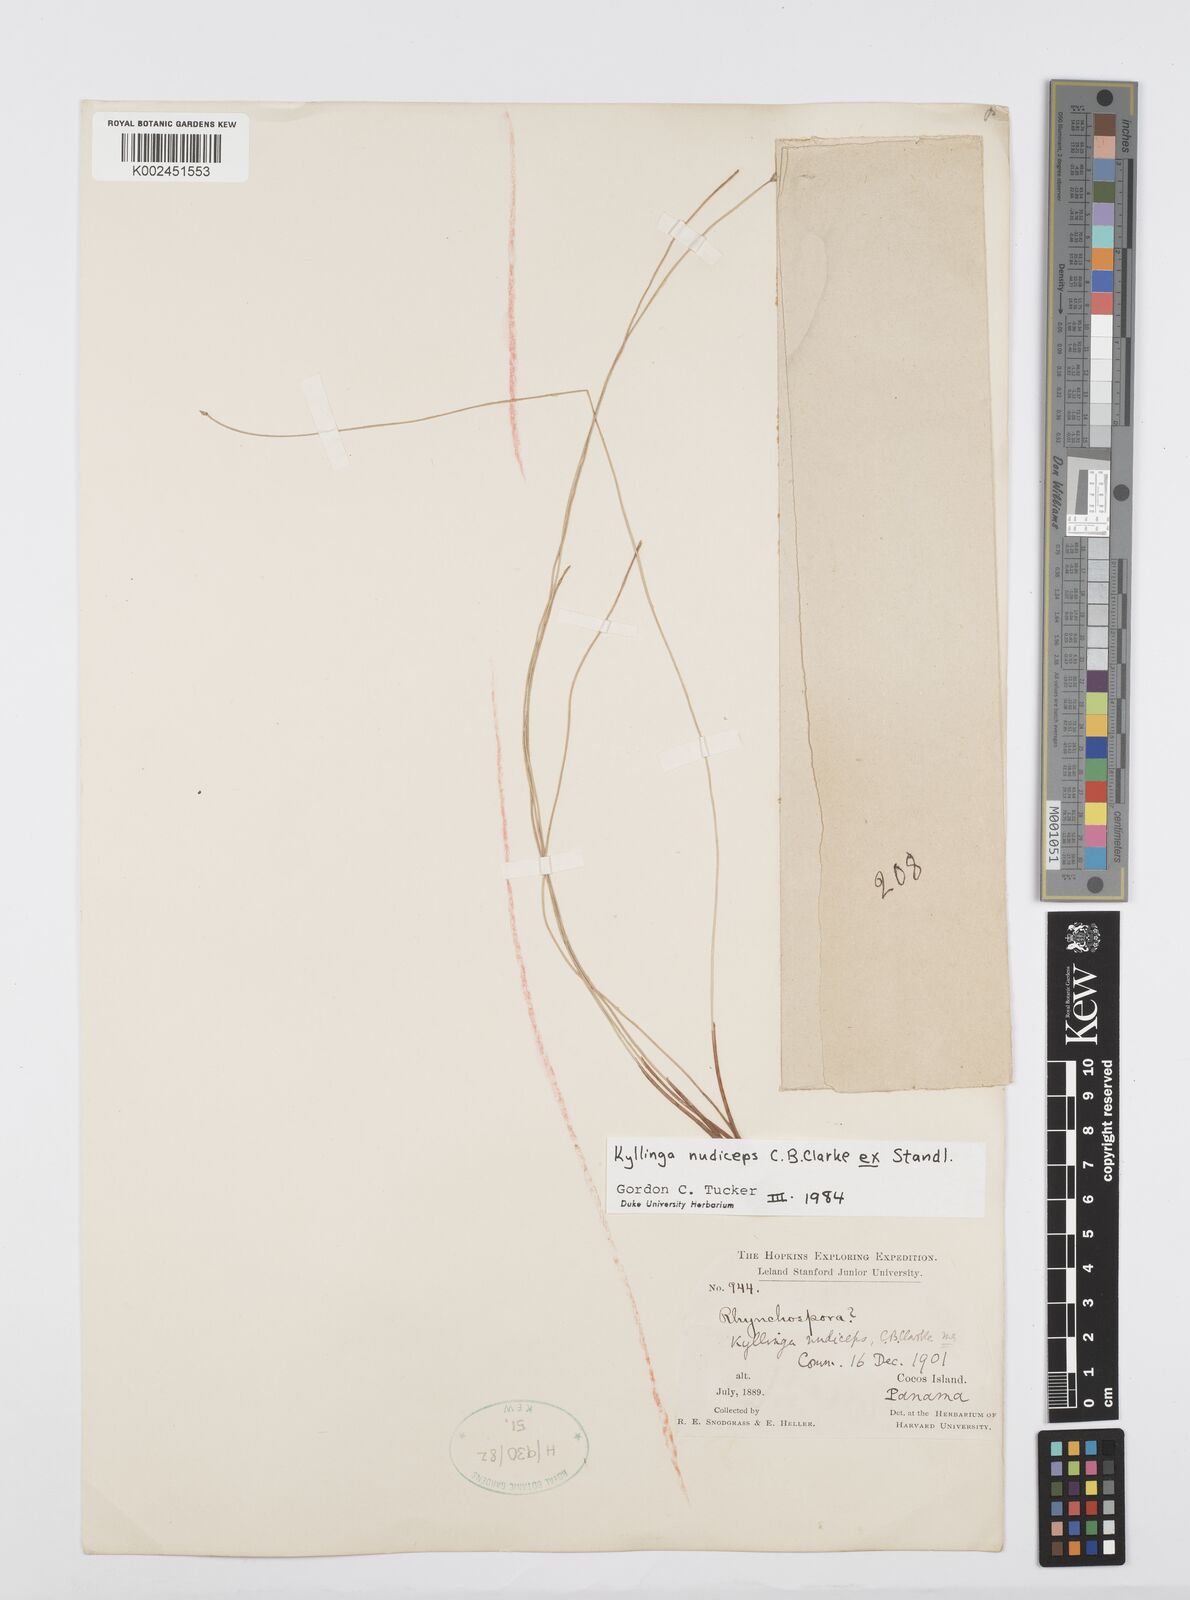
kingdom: Plantae
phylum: Tracheophyta
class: Liliopsida
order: Poales
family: Cyperaceae
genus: Cyperus
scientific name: Cyperus nudiceps
